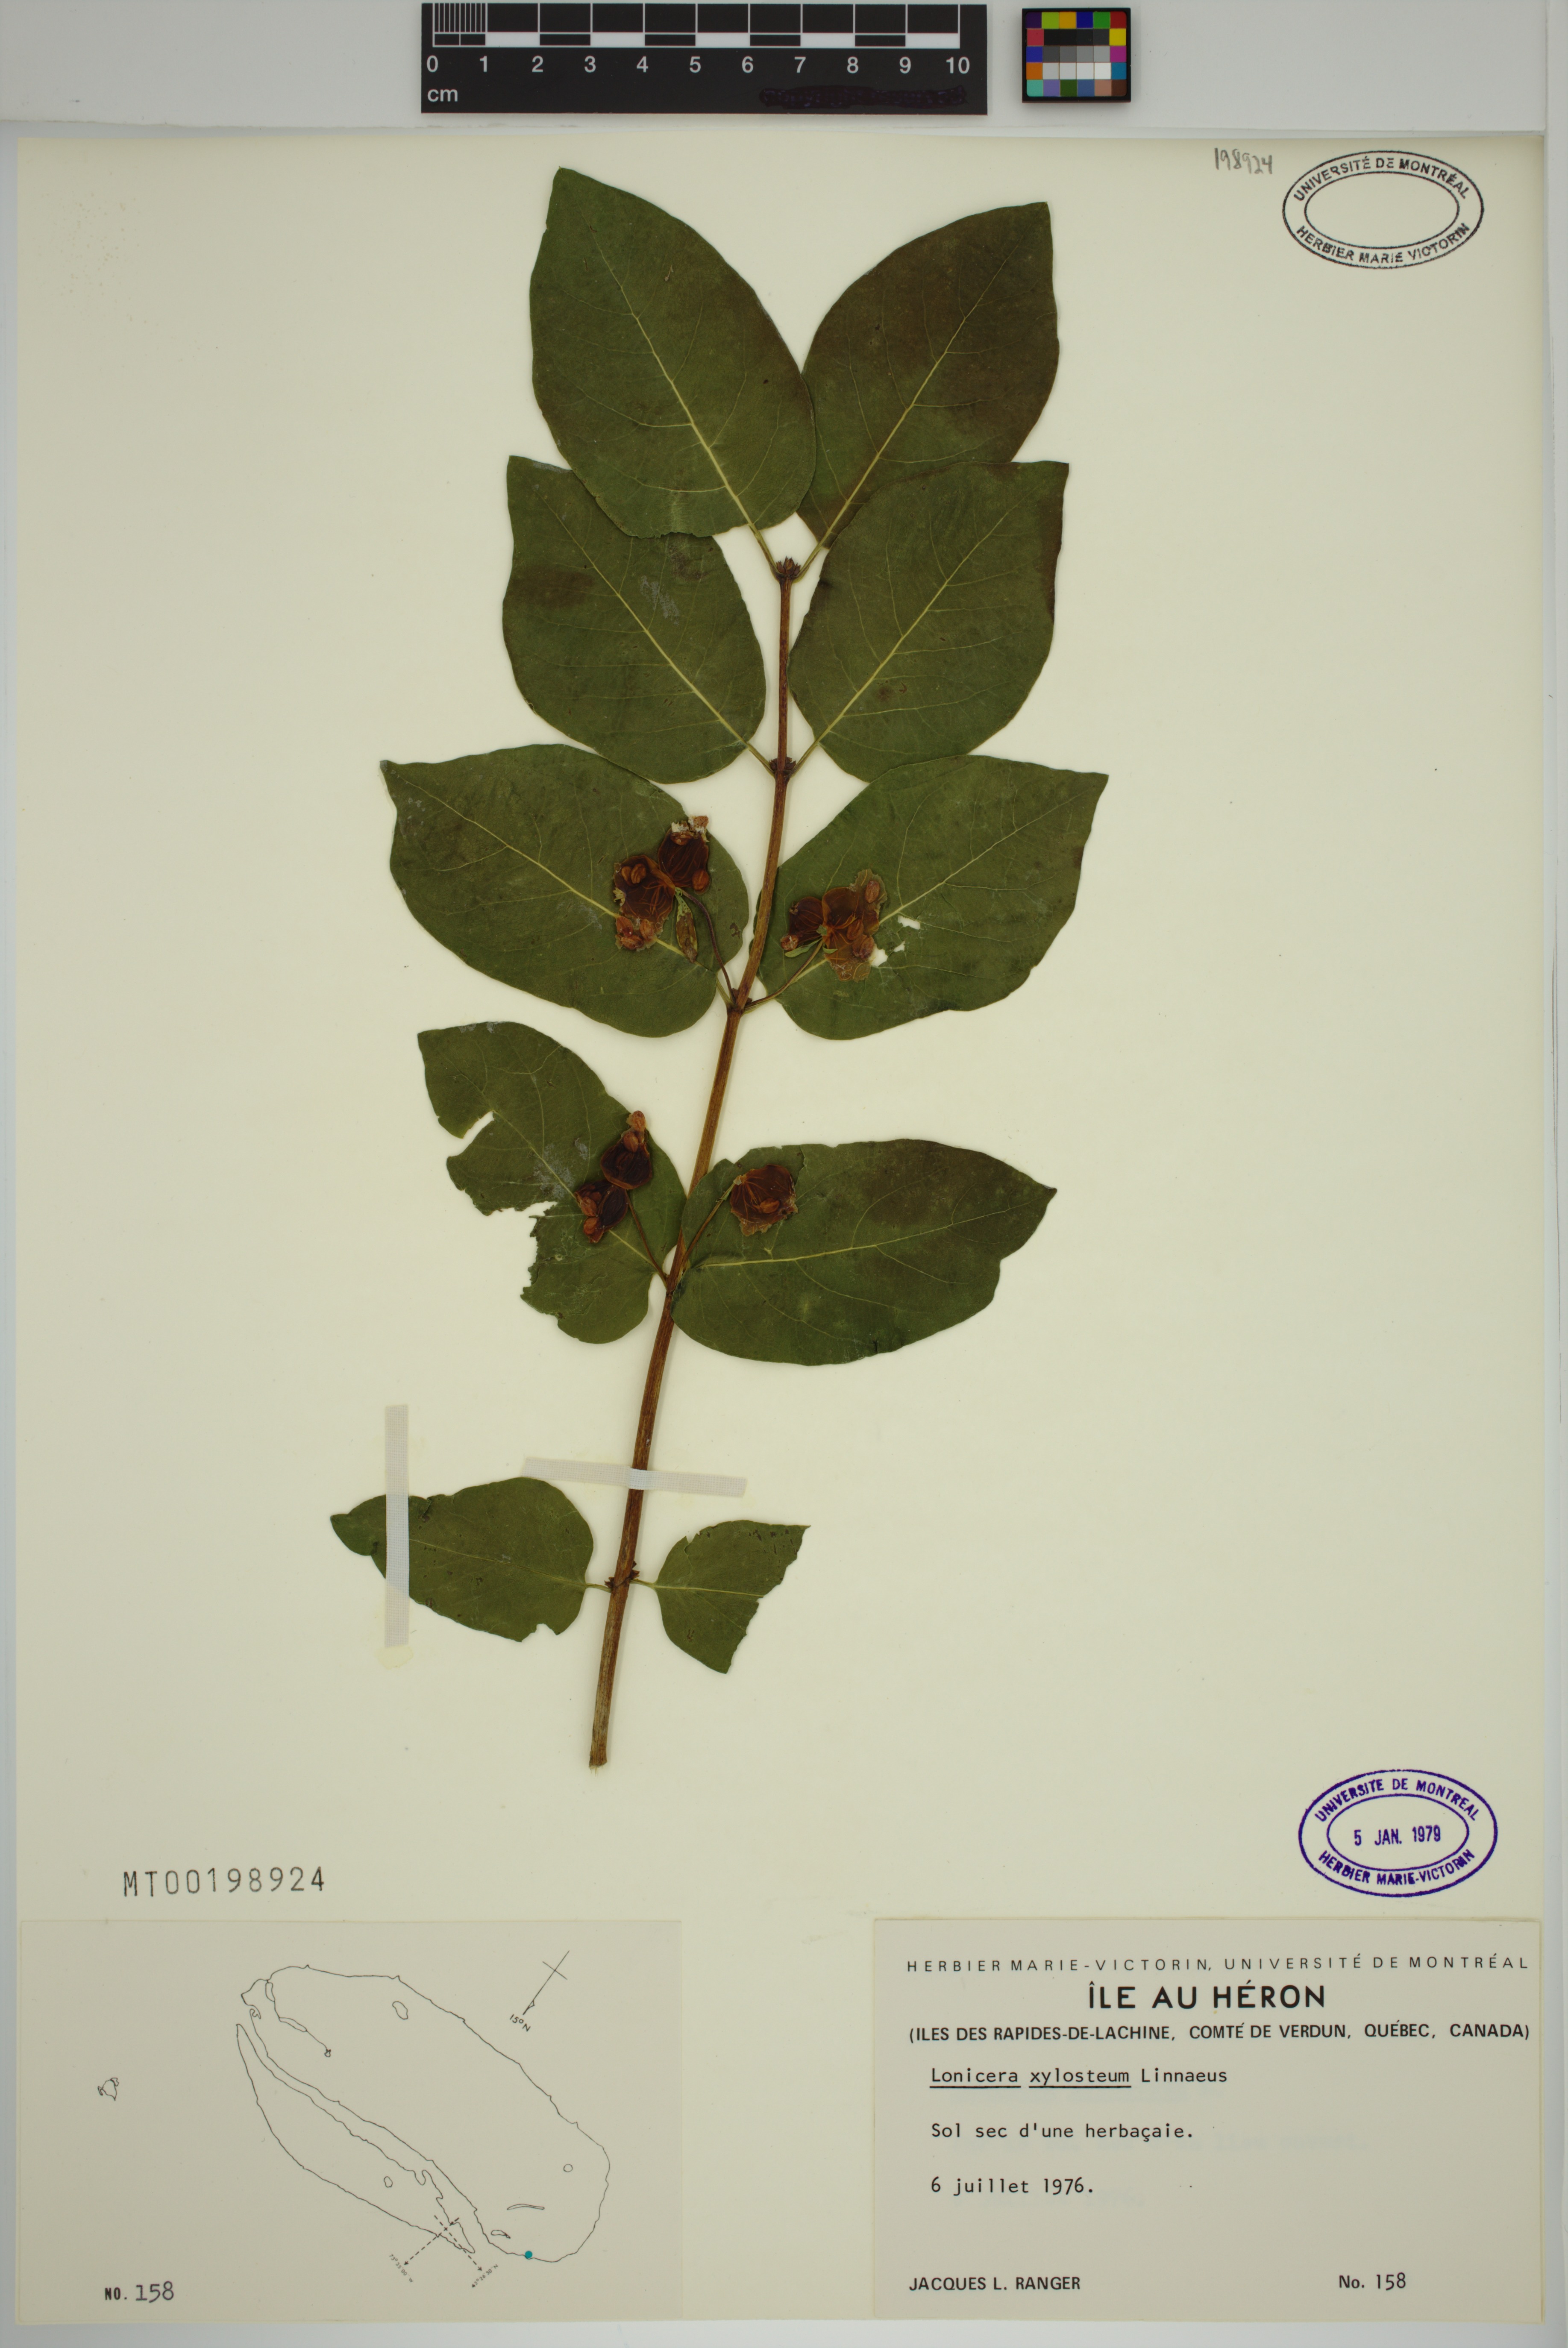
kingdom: Plantae
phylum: Tracheophyta
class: Magnoliopsida
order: Dipsacales
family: Caprifoliaceae
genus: Lonicera
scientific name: Lonicera tatarica
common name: Tatarian honeysuckle
